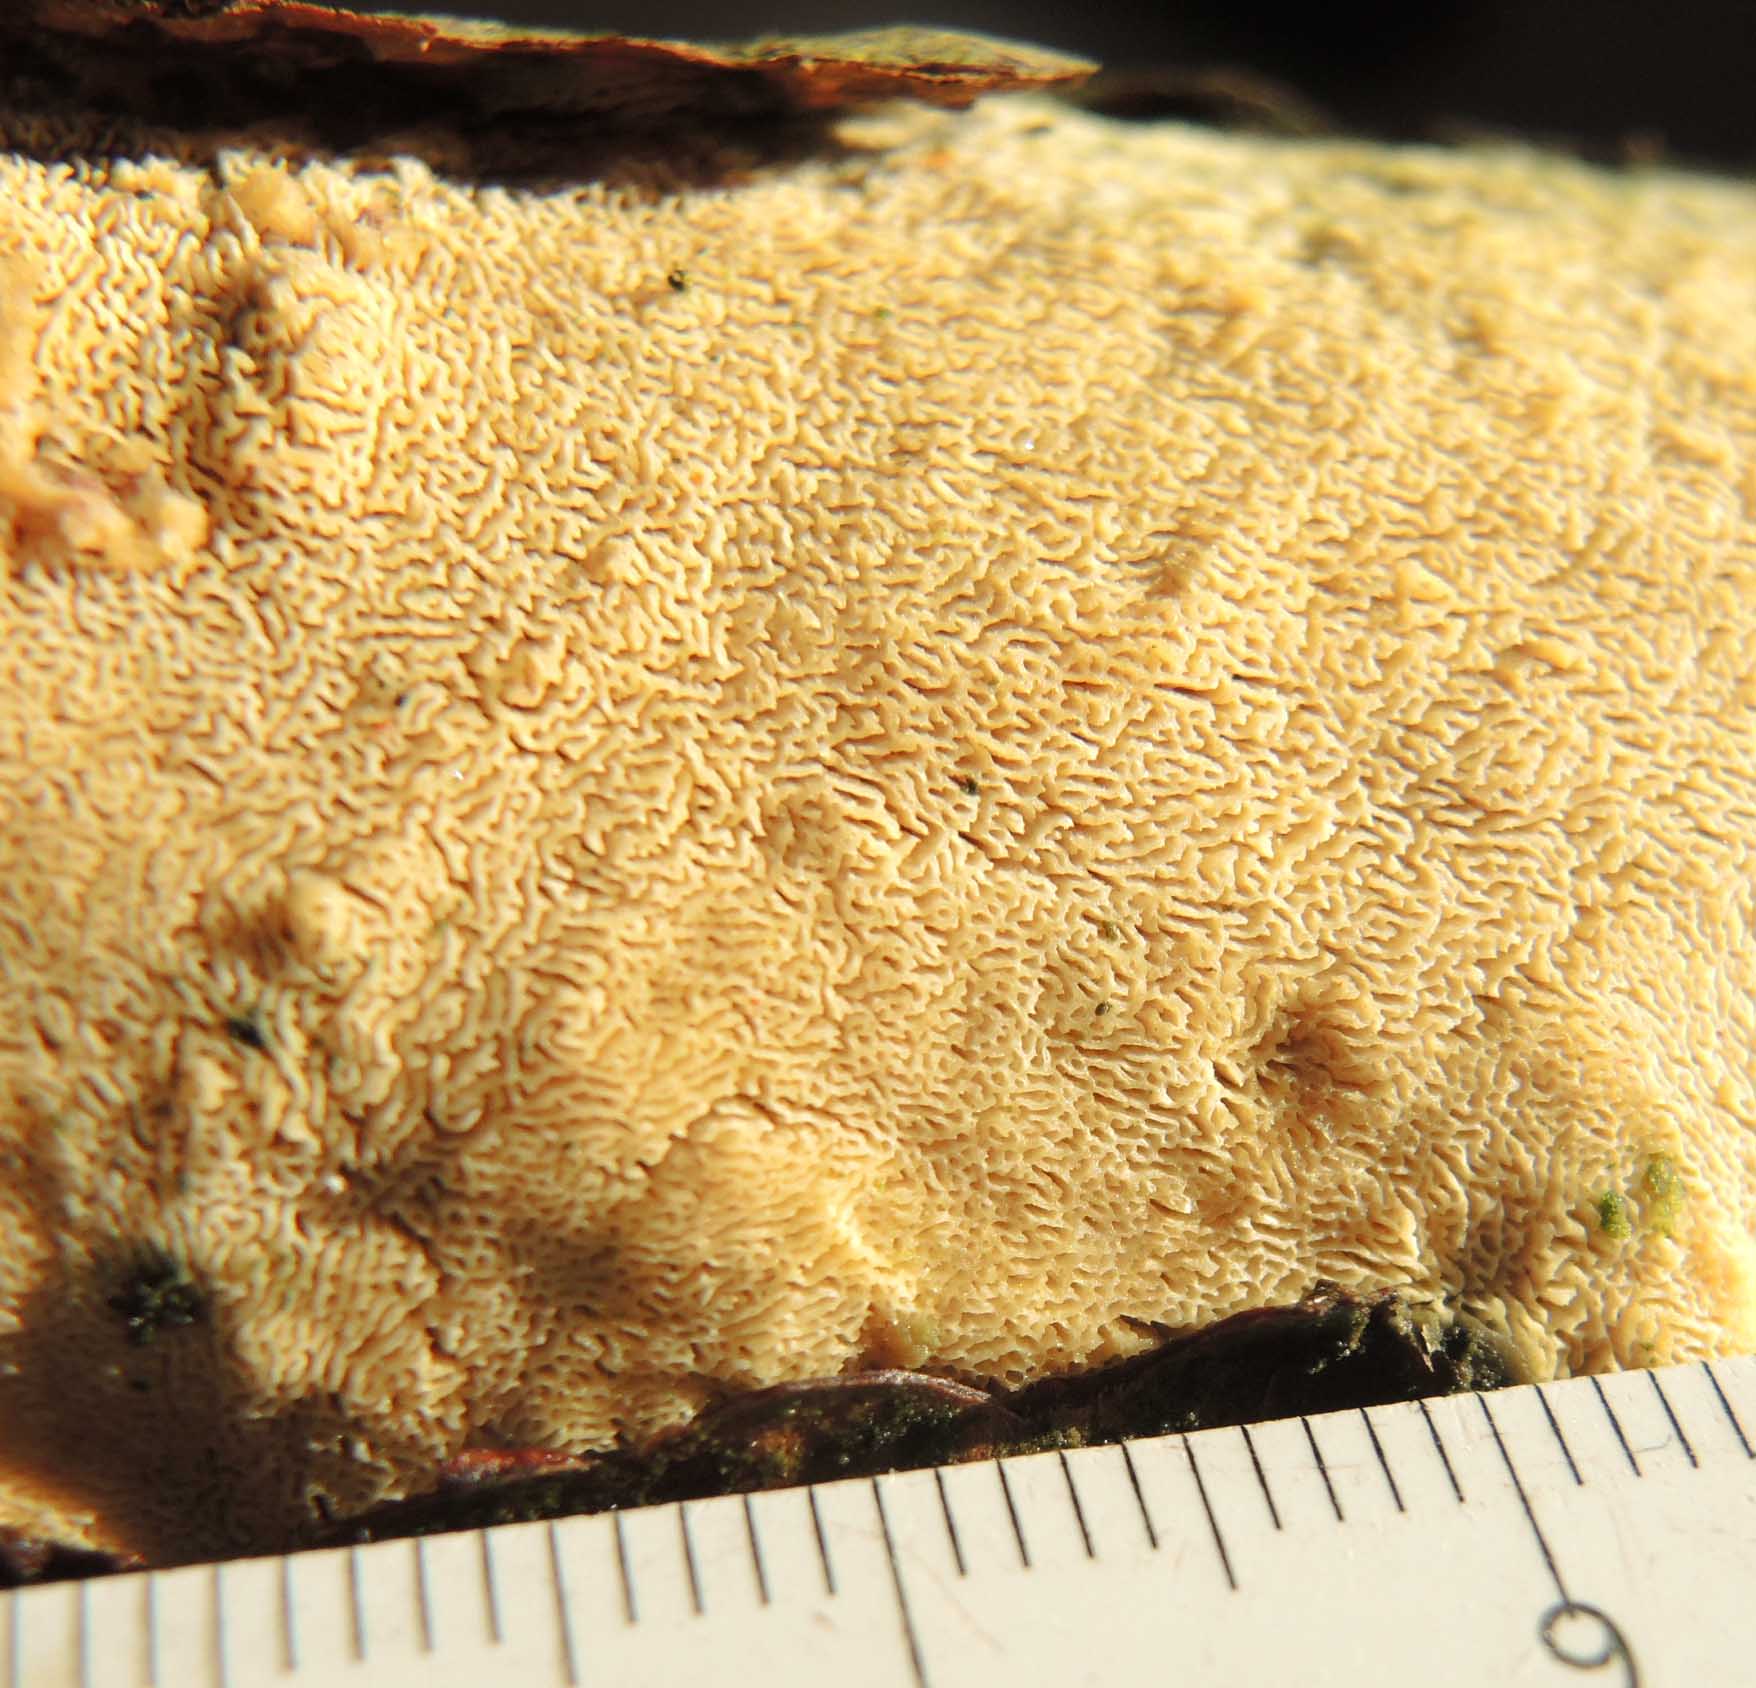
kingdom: Fungi
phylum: Basidiomycota
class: Agaricomycetes
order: Hymenochaetales
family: Schizoporaceae
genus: Xylodon
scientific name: Xylodon subtropicus
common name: labyrint-tandsvamp
